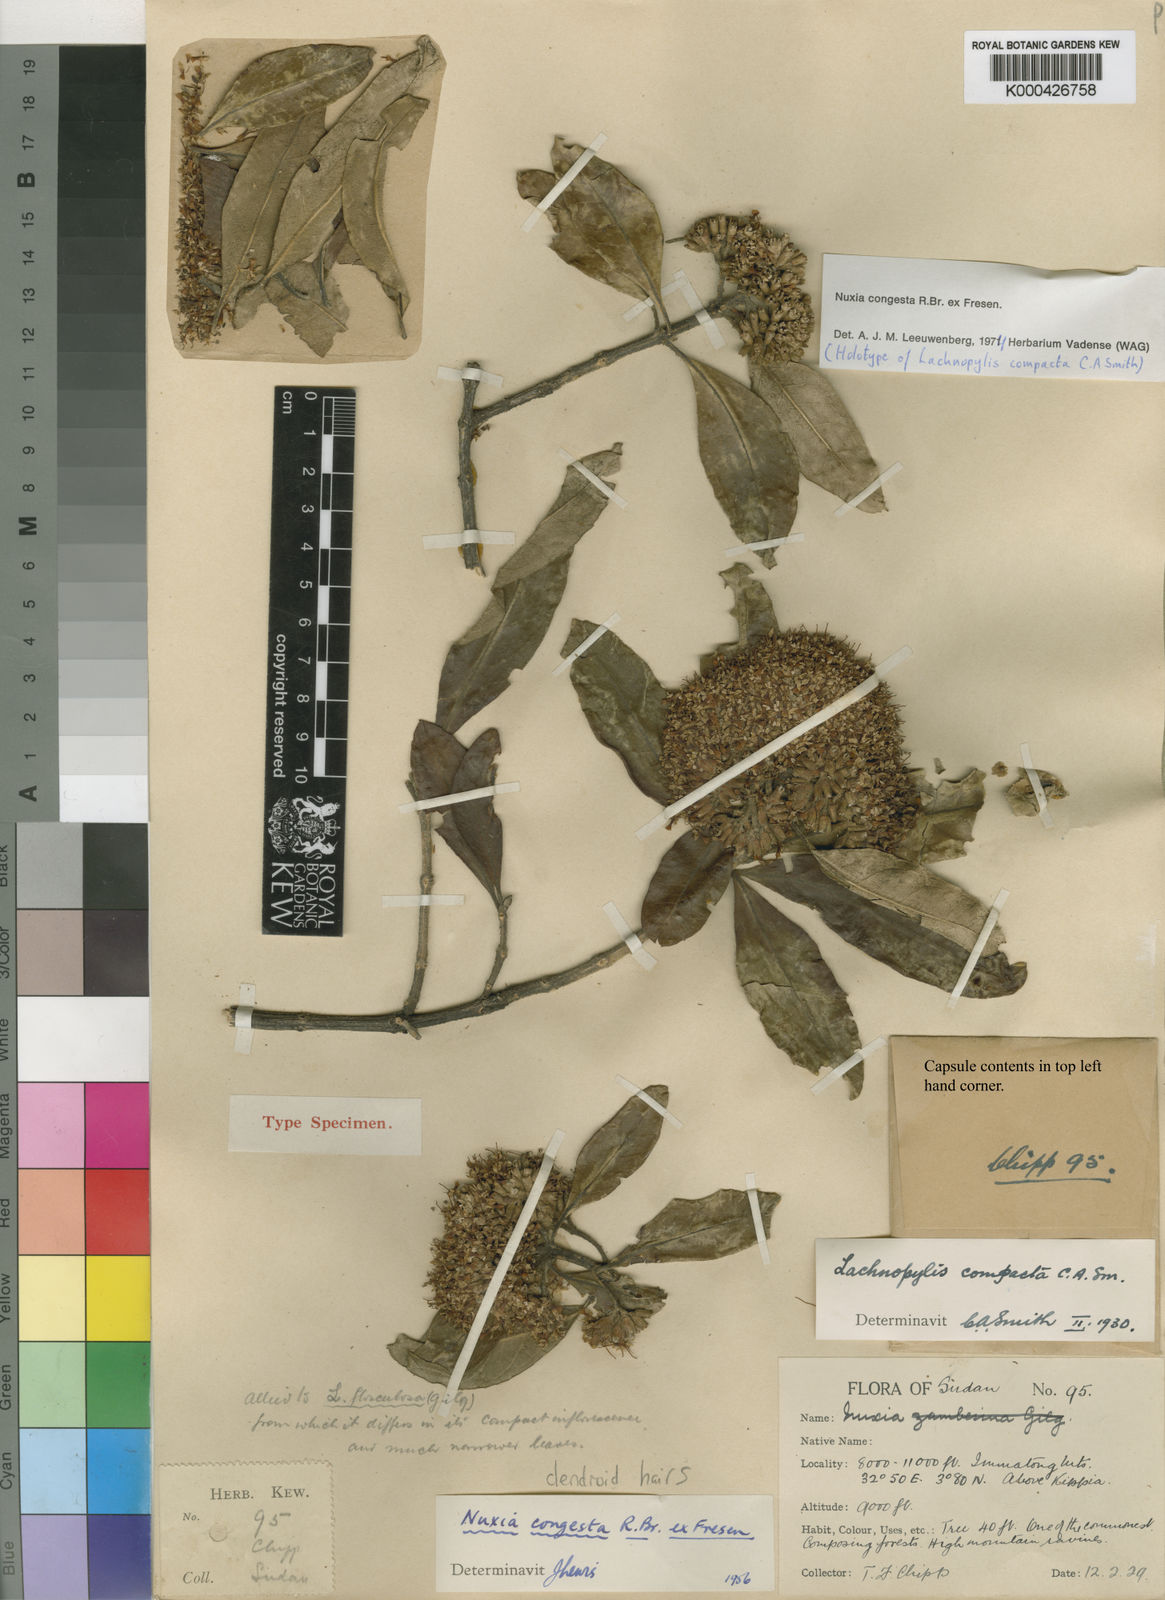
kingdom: Plantae
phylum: Tracheophyta
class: Magnoliopsida
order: Lamiales
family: Stilbaceae
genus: Nuxia
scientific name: Nuxia congesta
